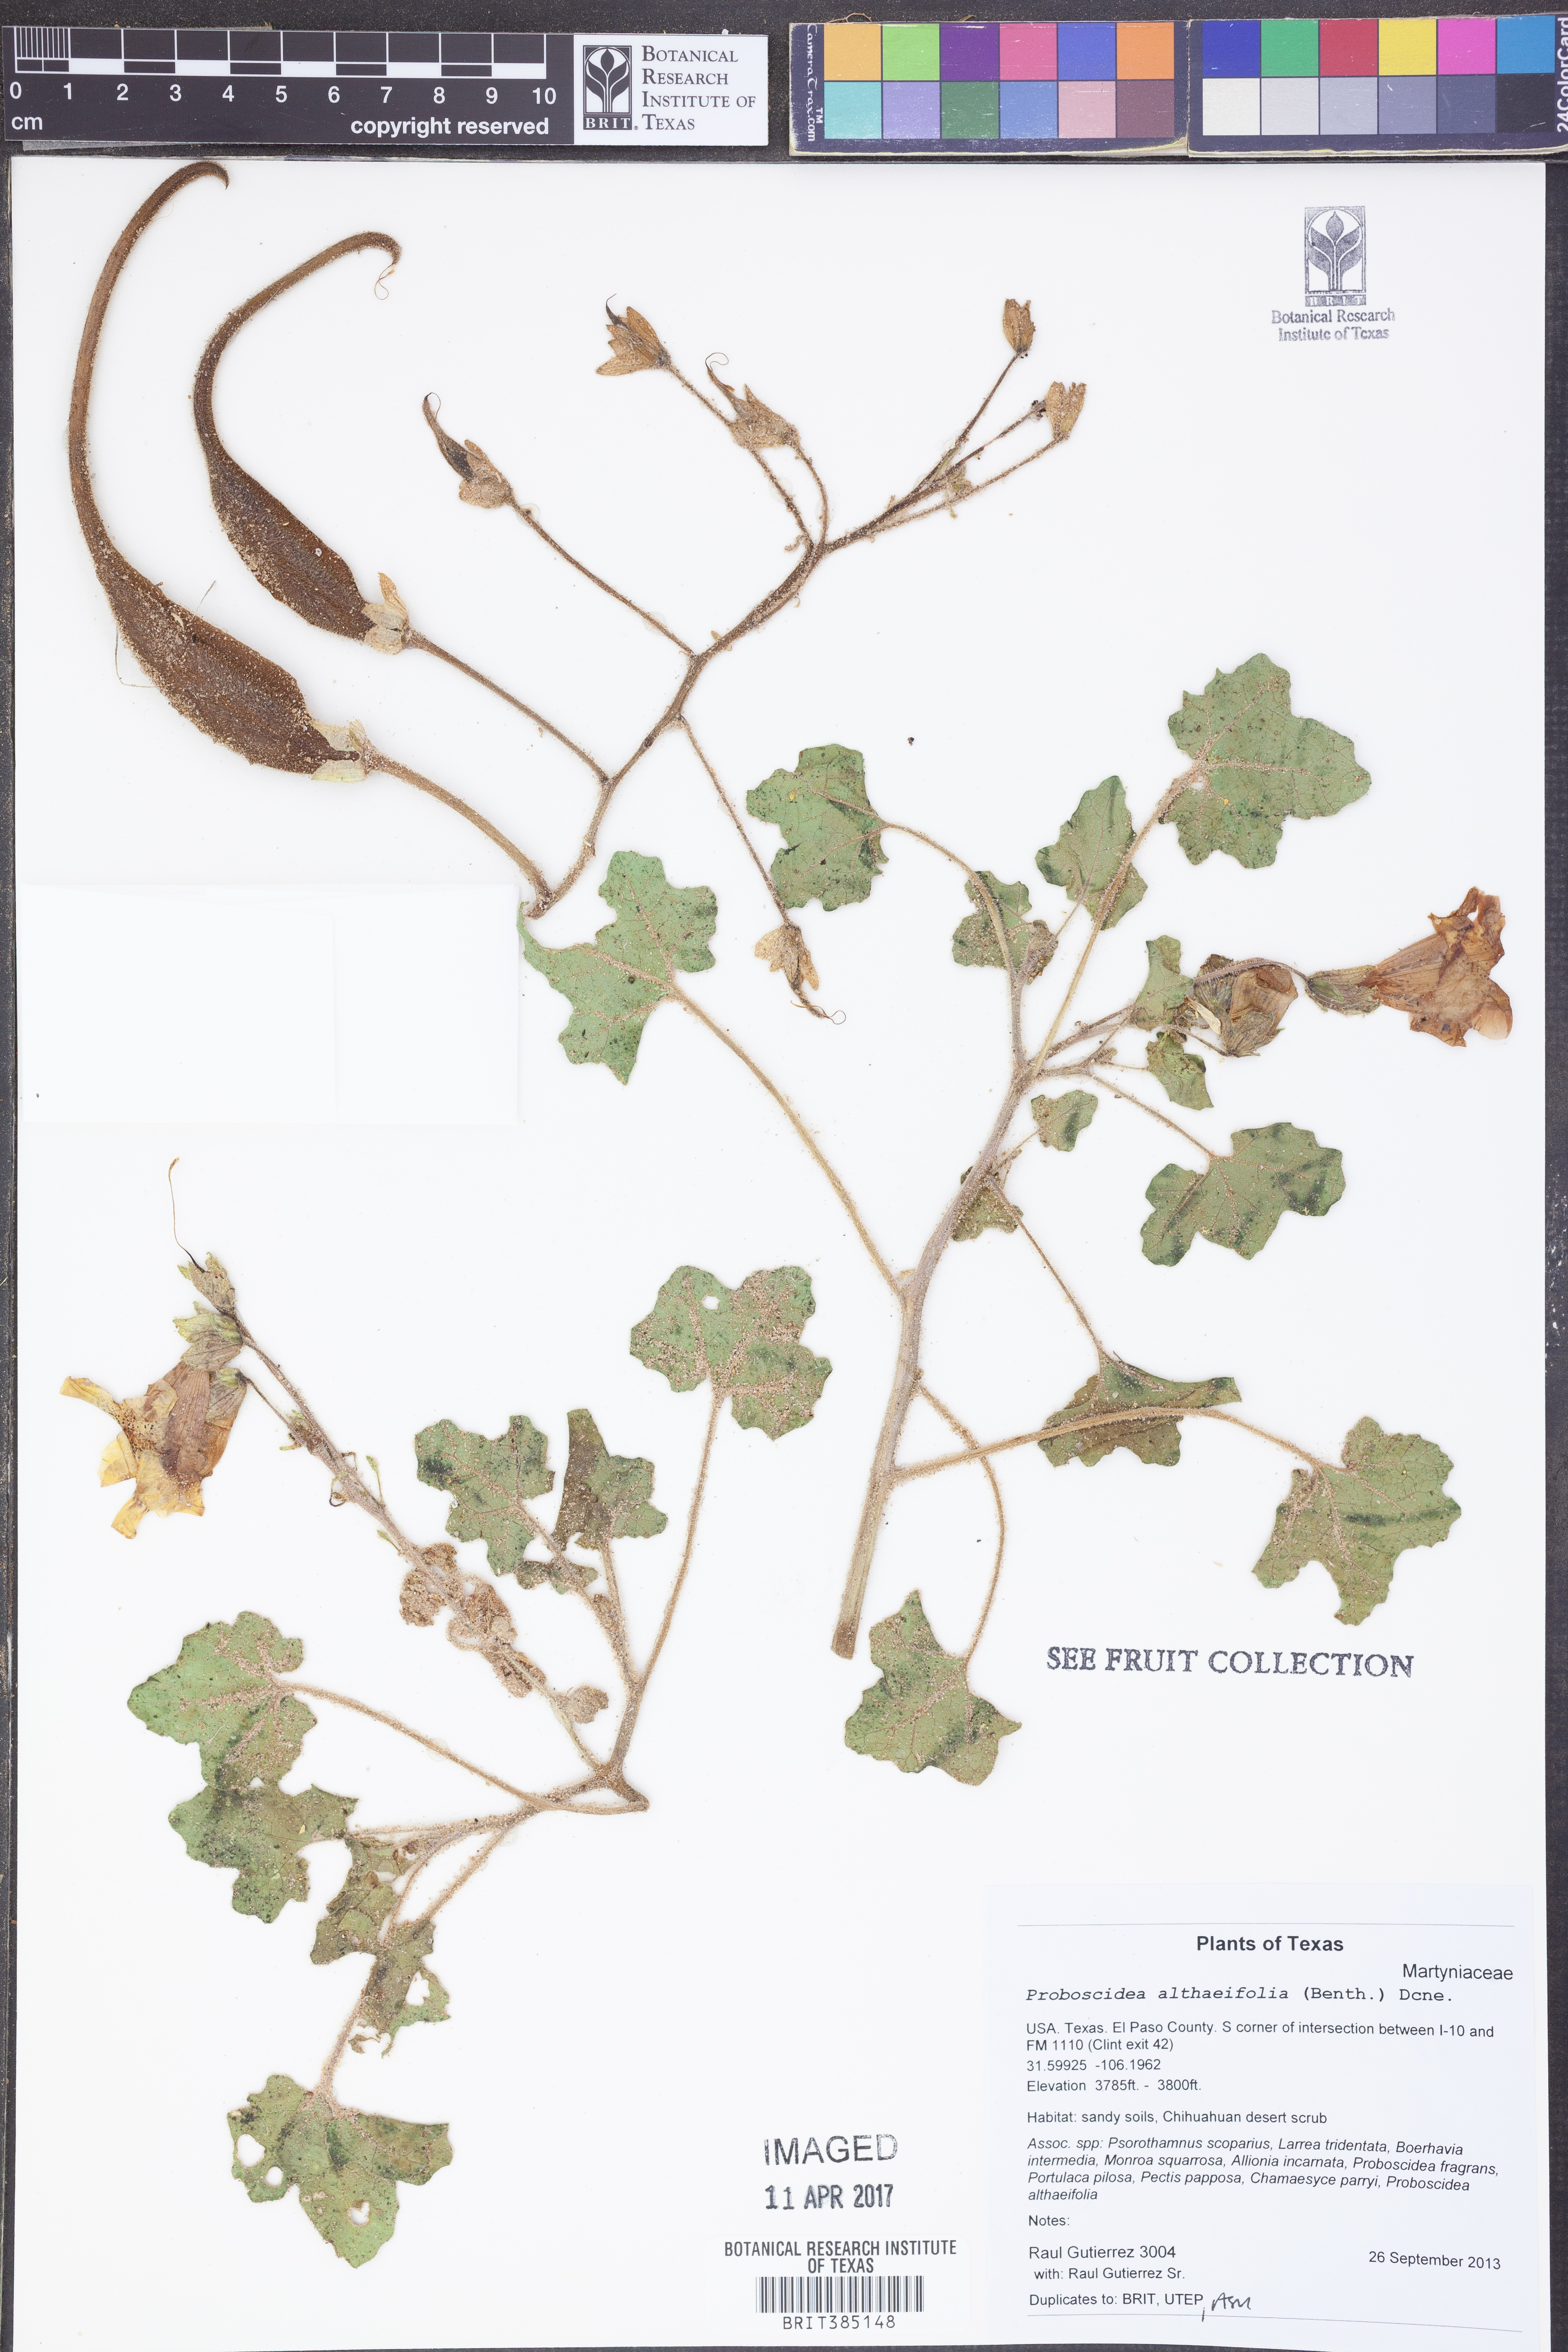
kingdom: Plantae
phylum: Tracheophyta
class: Magnoliopsida
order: Lamiales
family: Martyniaceae
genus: Proboscidea
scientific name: Proboscidea althaeifolia
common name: Desert unicorn-plant
